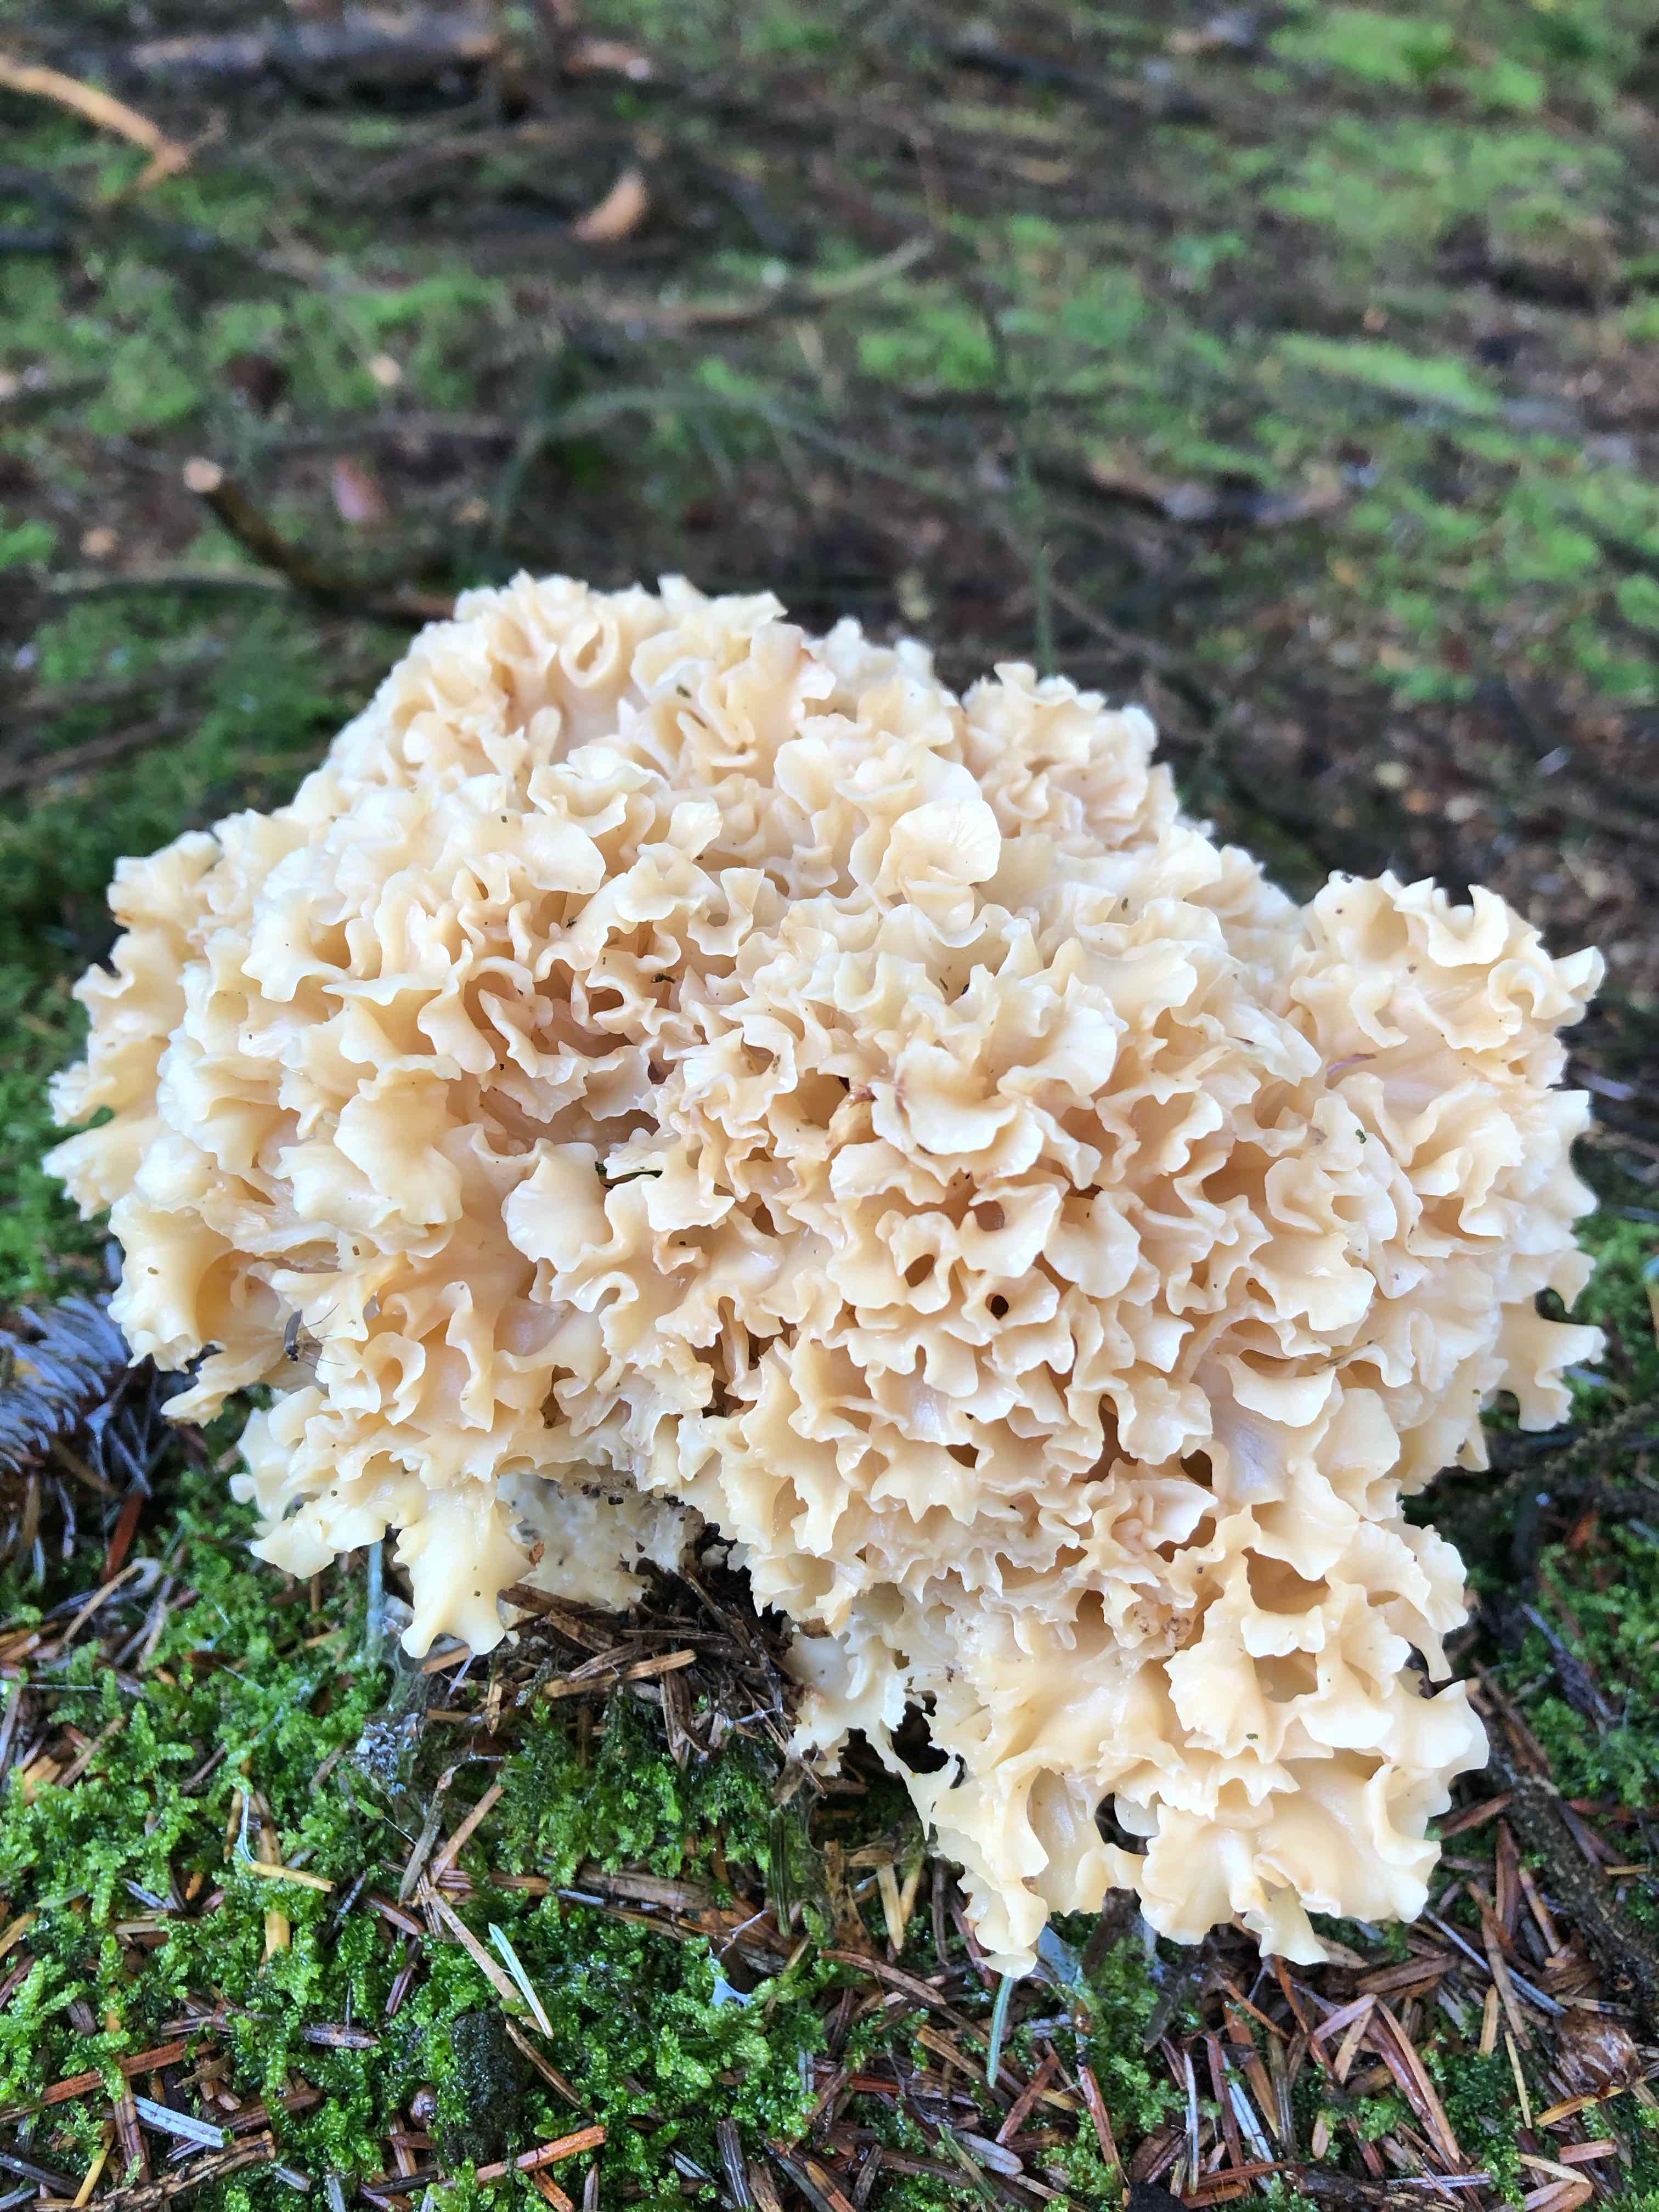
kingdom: Fungi
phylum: Basidiomycota
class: Agaricomycetes
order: Polyporales
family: Sparassidaceae
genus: Sparassis
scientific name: Sparassis crispa
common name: kruset blomkålssvamp
